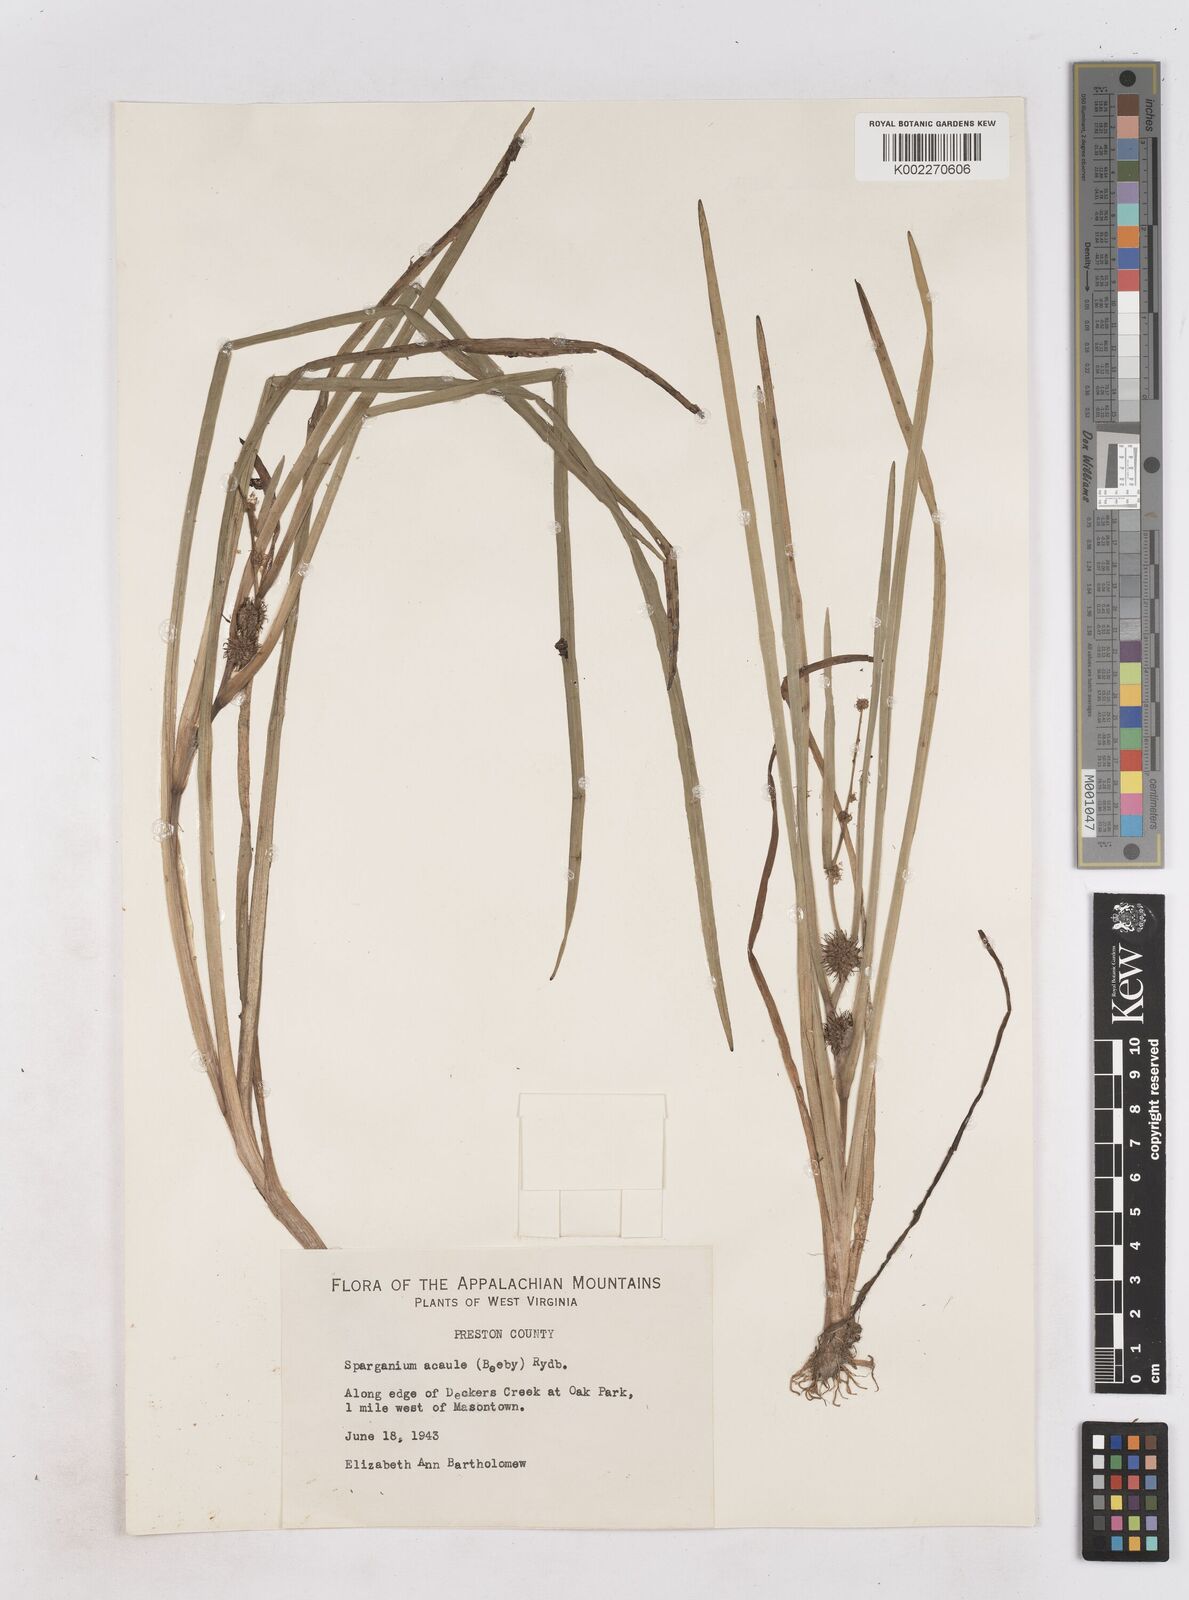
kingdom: Plantae
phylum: Tracheophyta
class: Liliopsida
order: Poales
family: Typhaceae
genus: Sparganium
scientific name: Sparganium emersum
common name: Unbranched bur-reed
